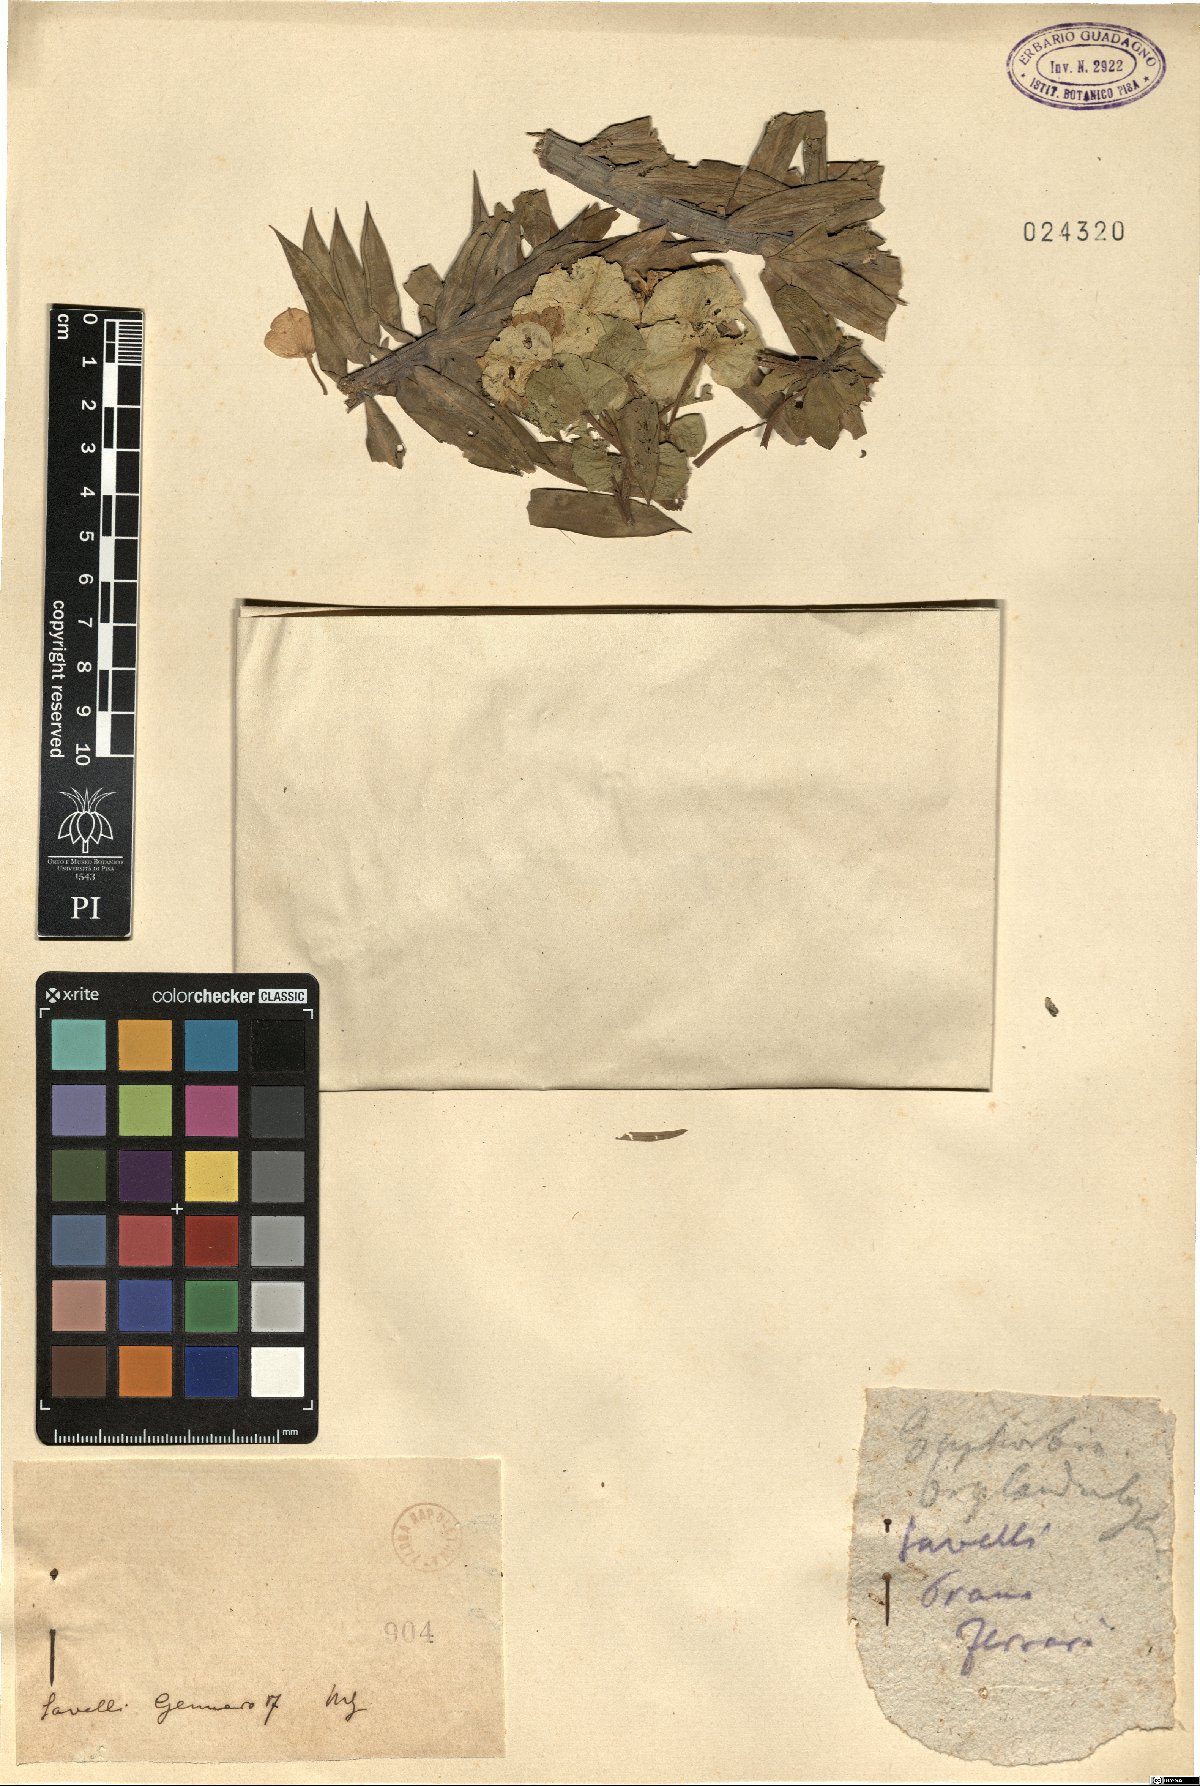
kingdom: Plantae
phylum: Tracheophyta
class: Magnoliopsida
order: Malpighiales
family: Euphorbiaceae
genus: Euphorbia
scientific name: Euphorbia
